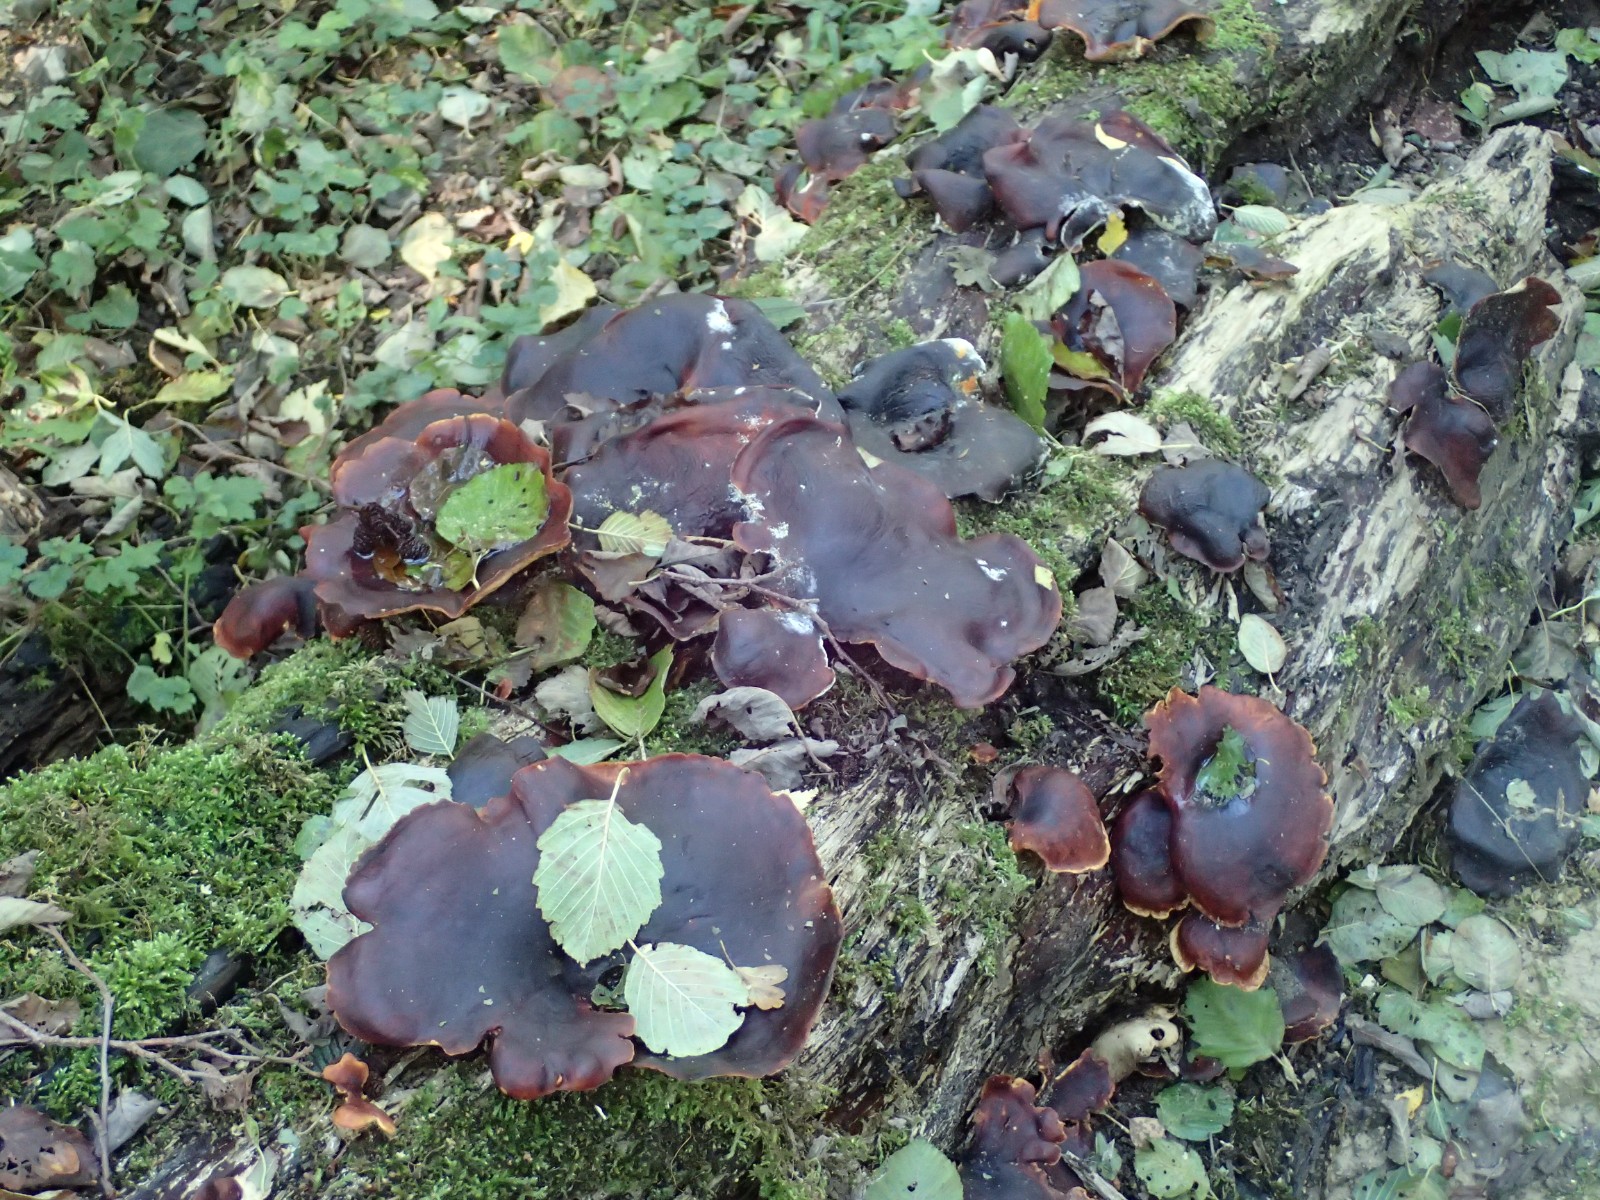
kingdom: Fungi
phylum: Basidiomycota
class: Agaricomycetes
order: Polyporales
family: Polyporaceae
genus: Picipes
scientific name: Picipes badius
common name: kastaniebrun stilkporesvamp
